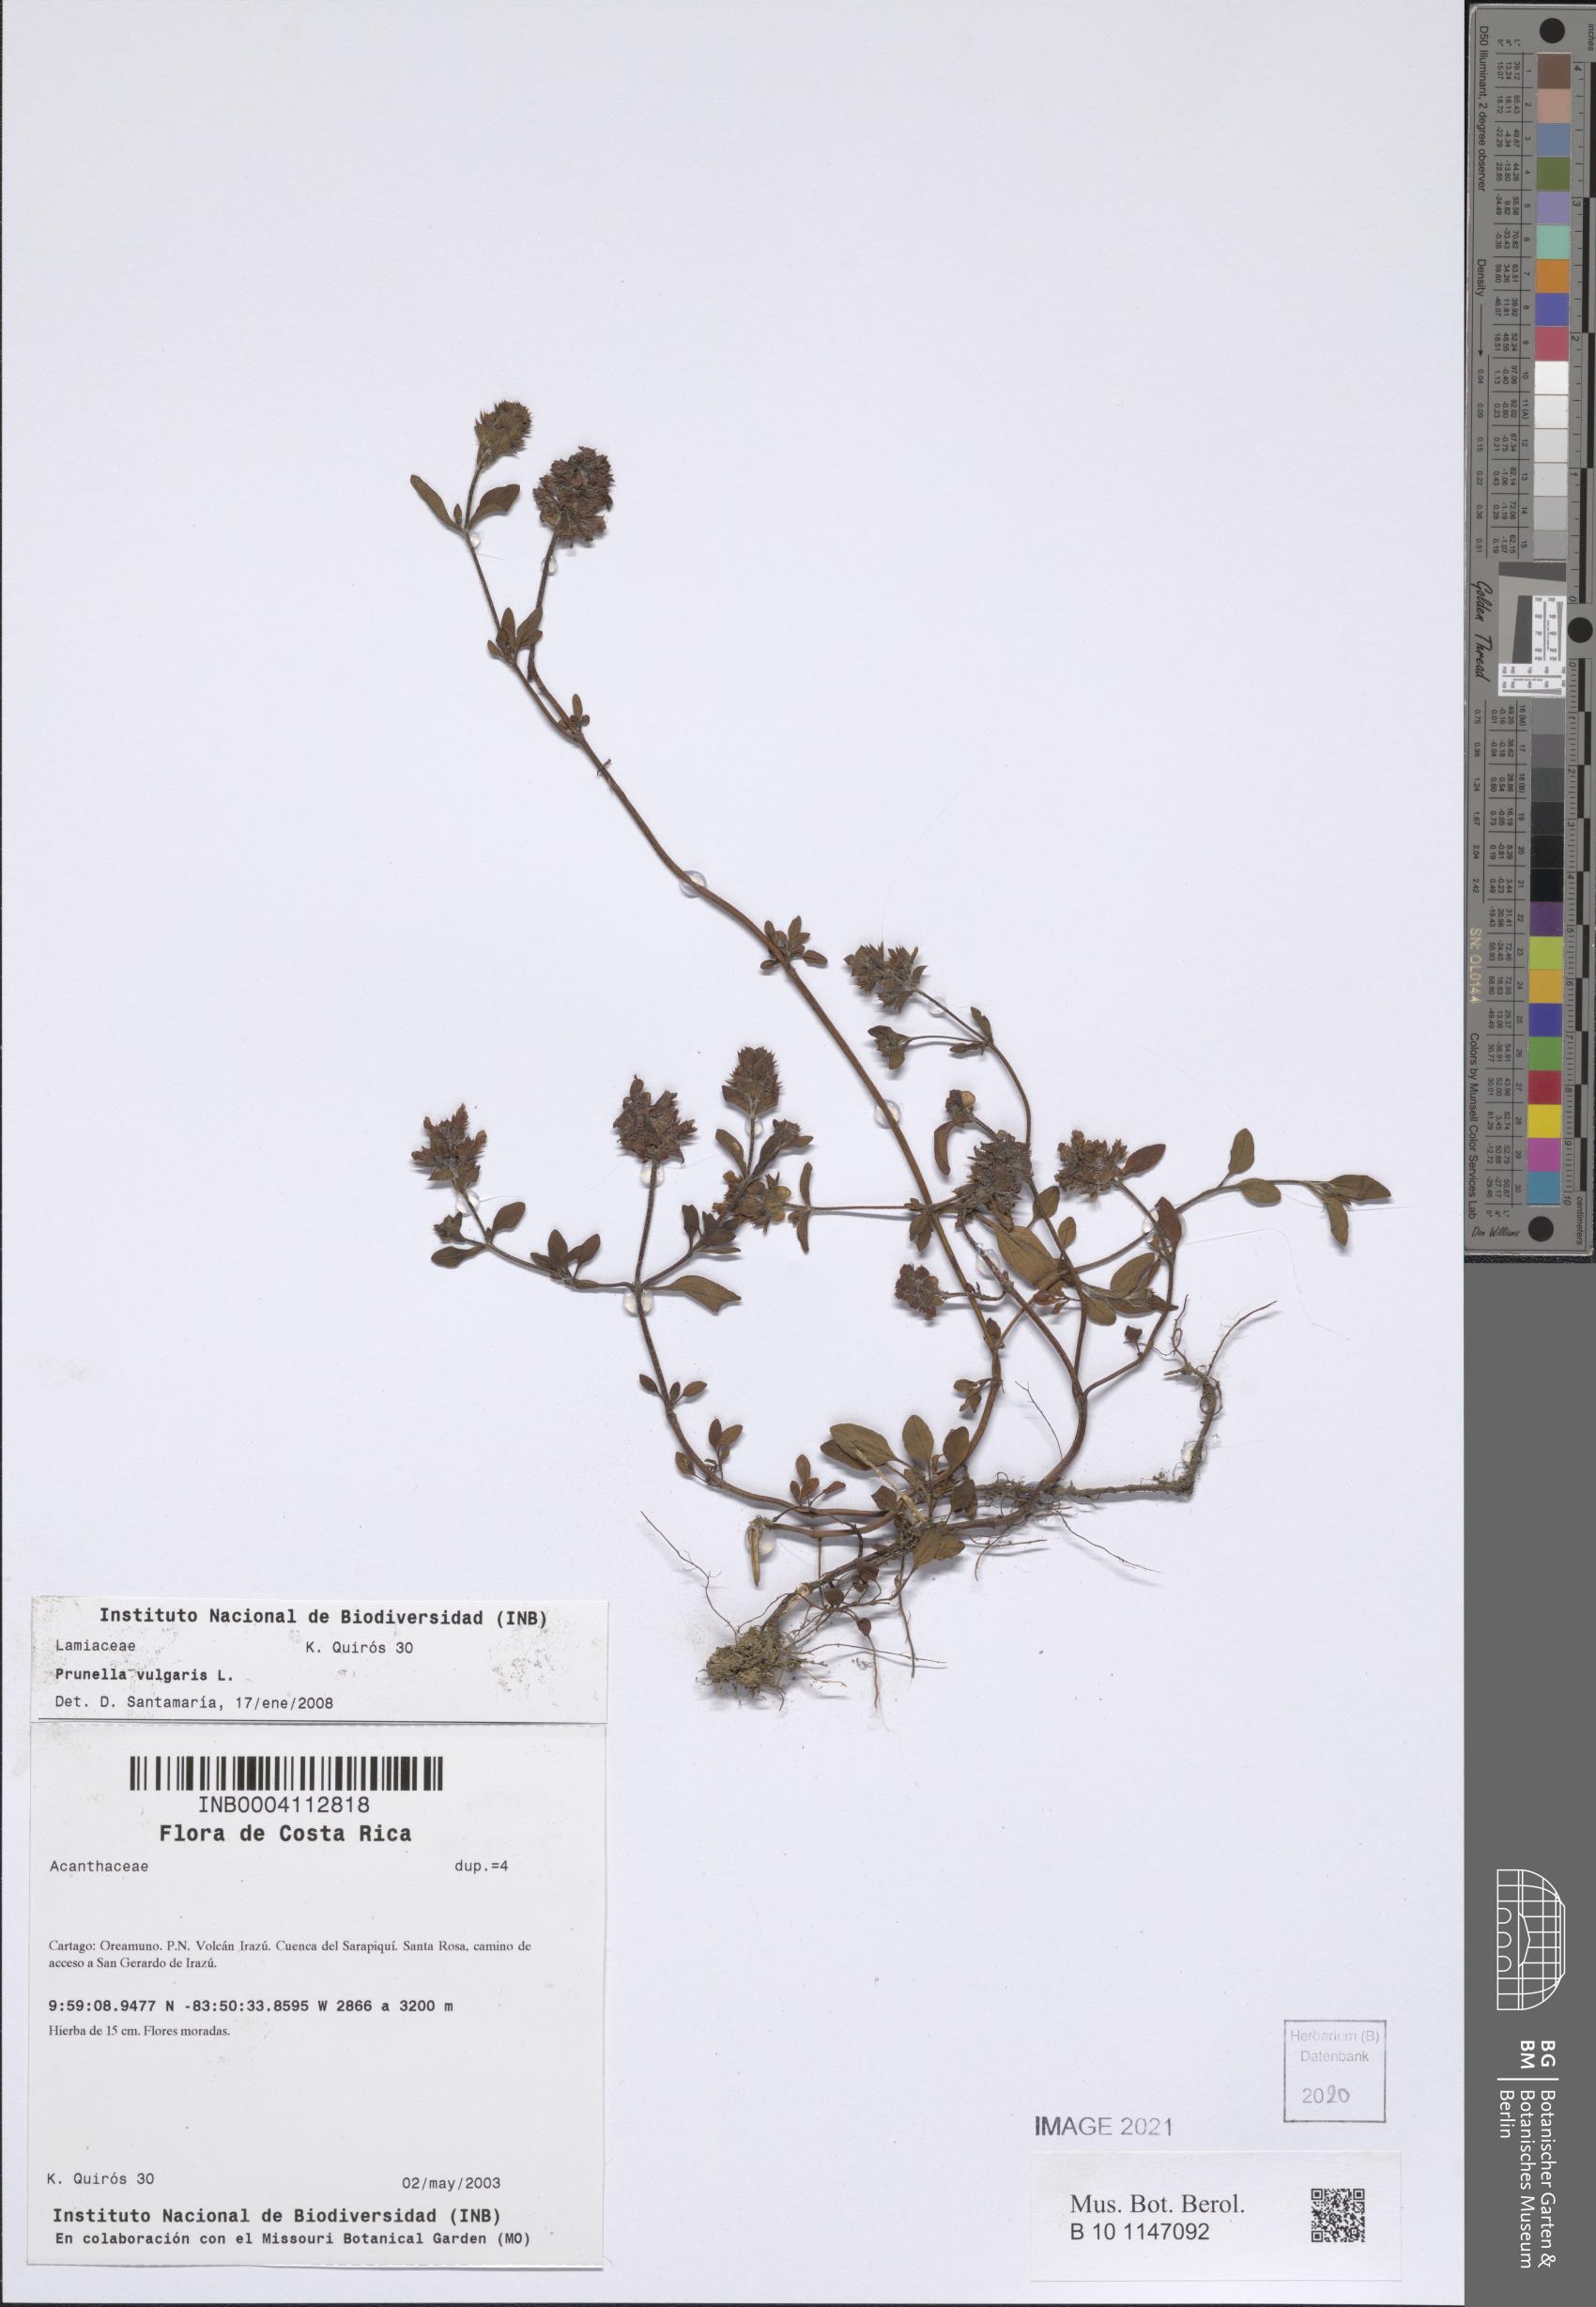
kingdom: Plantae
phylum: Tracheophyta
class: Magnoliopsida
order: Lamiales
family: Lamiaceae
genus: Prunella
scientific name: Prunella vulgaris
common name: Heal-all
